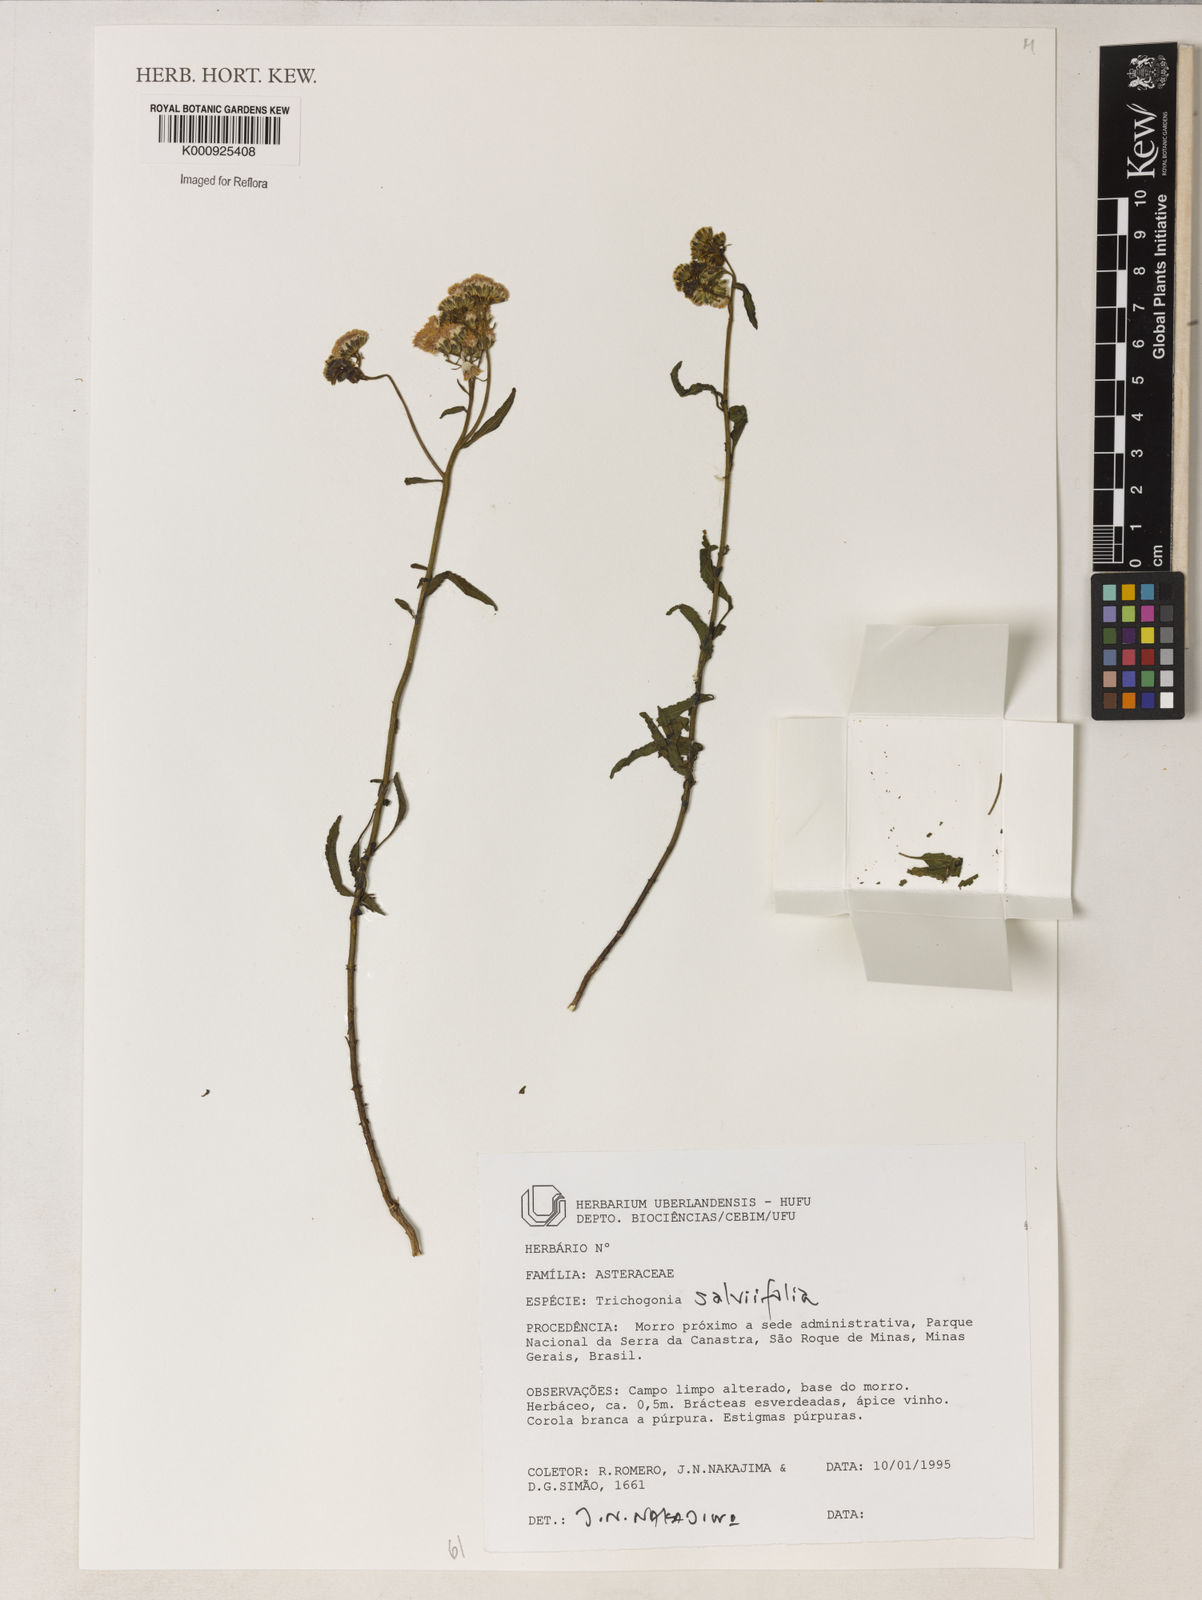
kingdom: Plantae
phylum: Tracheophyta
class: Magnoliopsida
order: Asterales
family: Asteraceae
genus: Trichogonia
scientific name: Trichogonia
